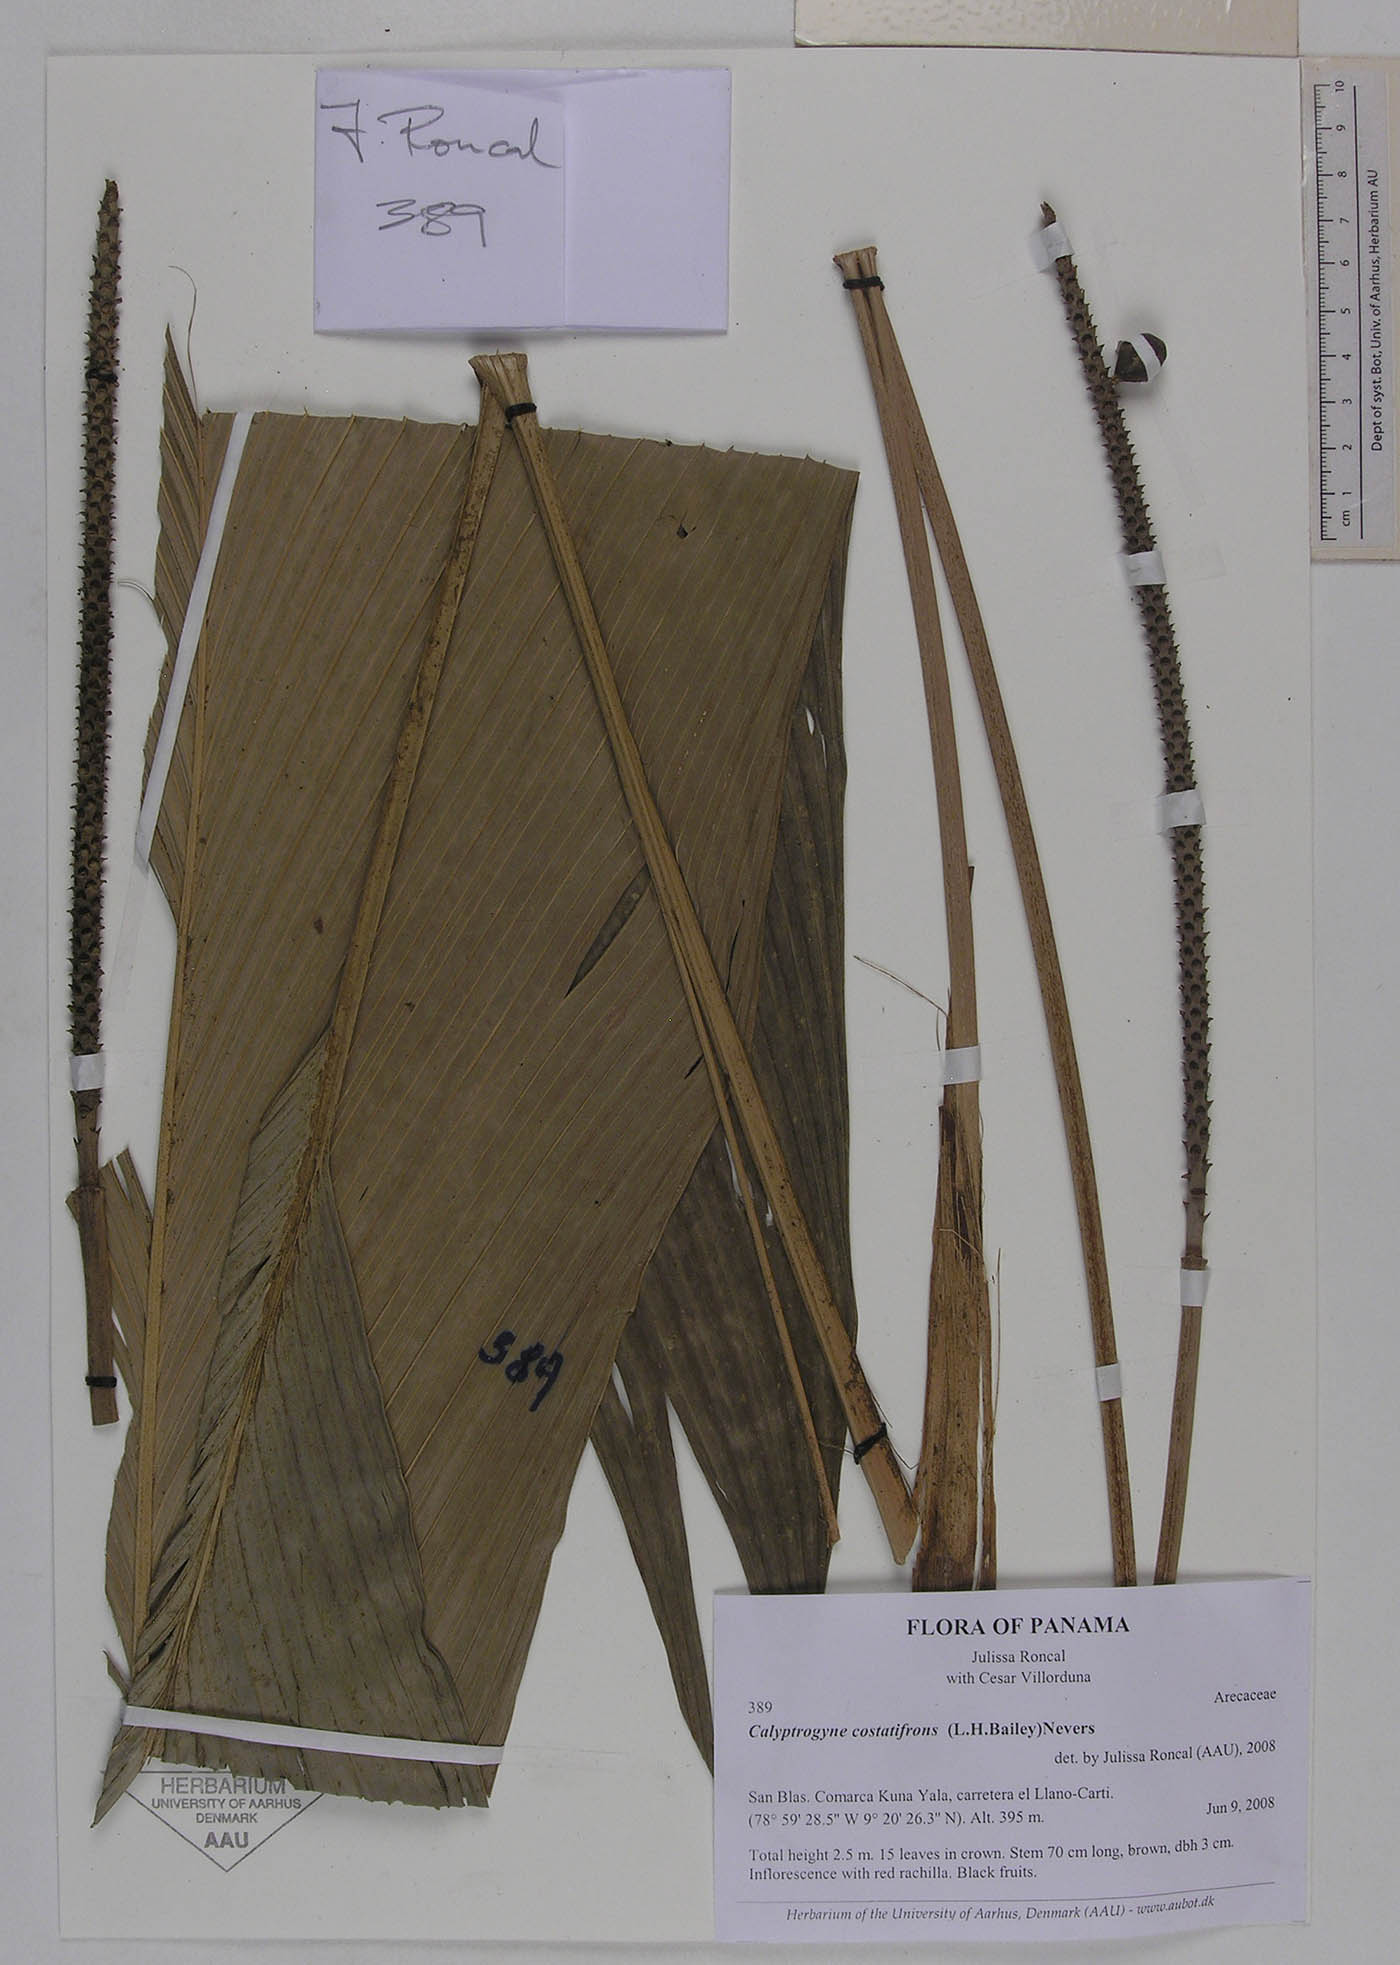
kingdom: Plantae
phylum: Tracheophyta
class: Liliopsida
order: Arecales
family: Arecaceae
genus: Calyptrogyne
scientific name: Calyptrogyne costatifrons
